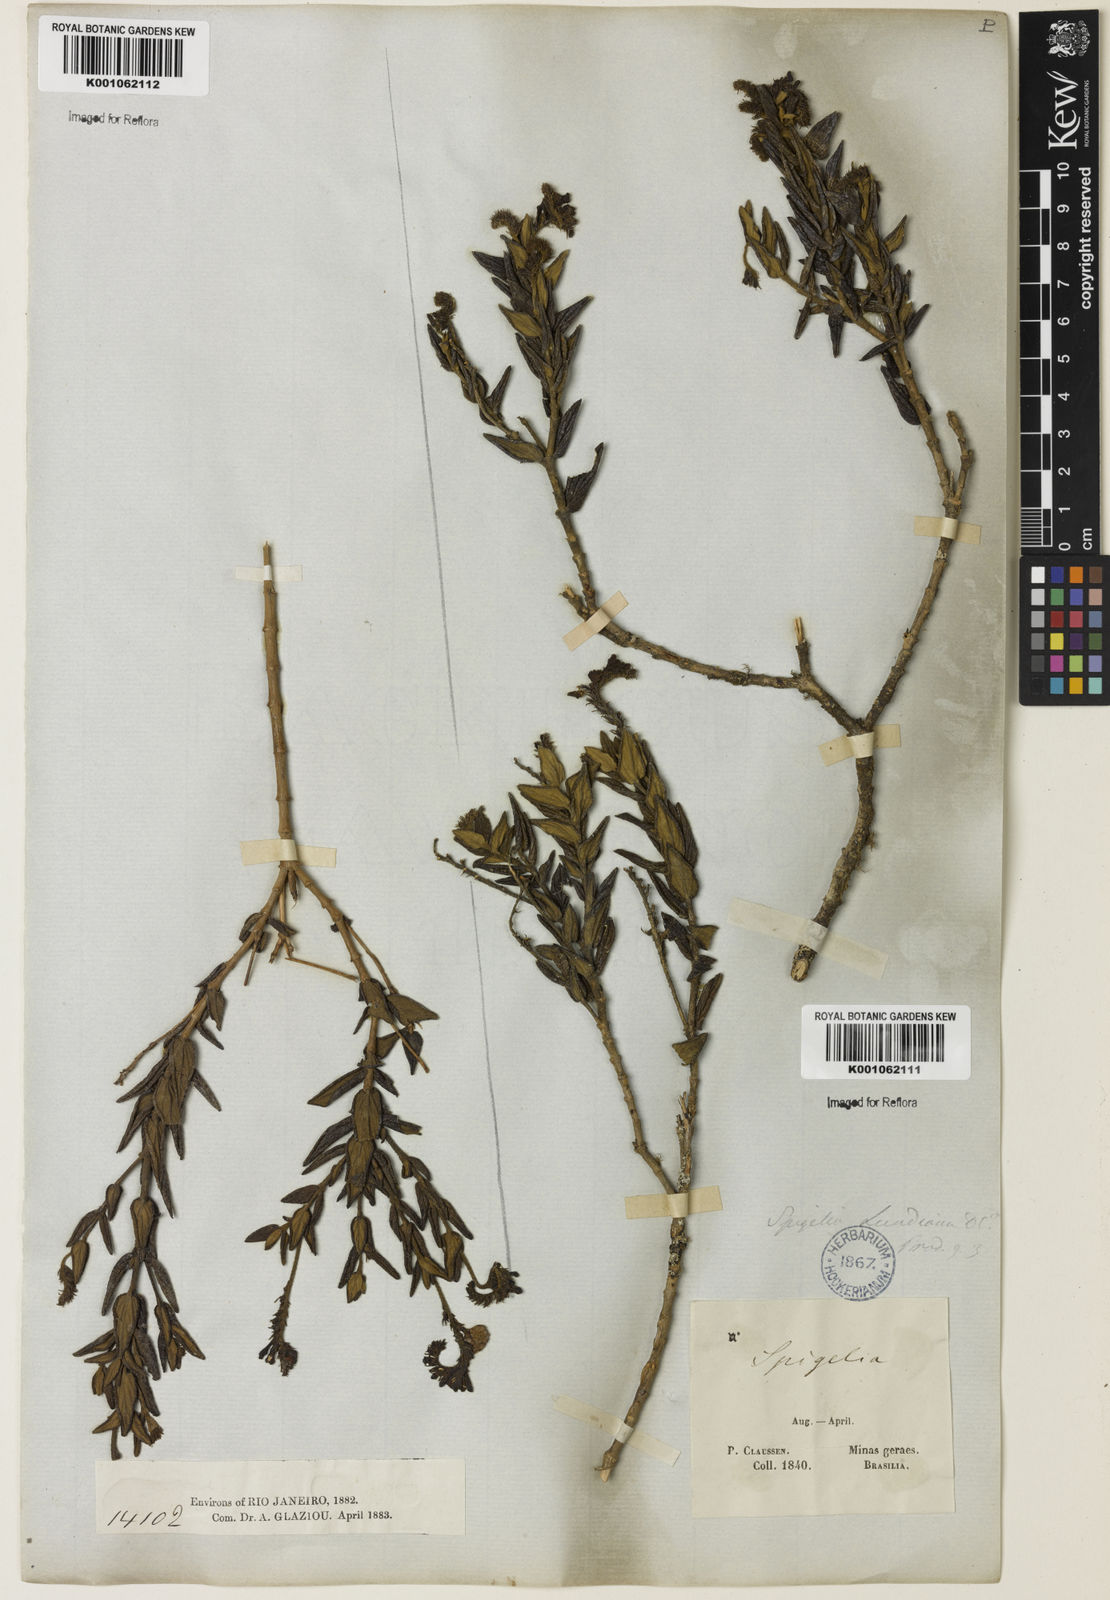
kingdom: Plantae
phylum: Tracheophyta
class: Magnoliopsida
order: Gentianales
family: Loganiaceae
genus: Spigelia
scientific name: Spigelia
